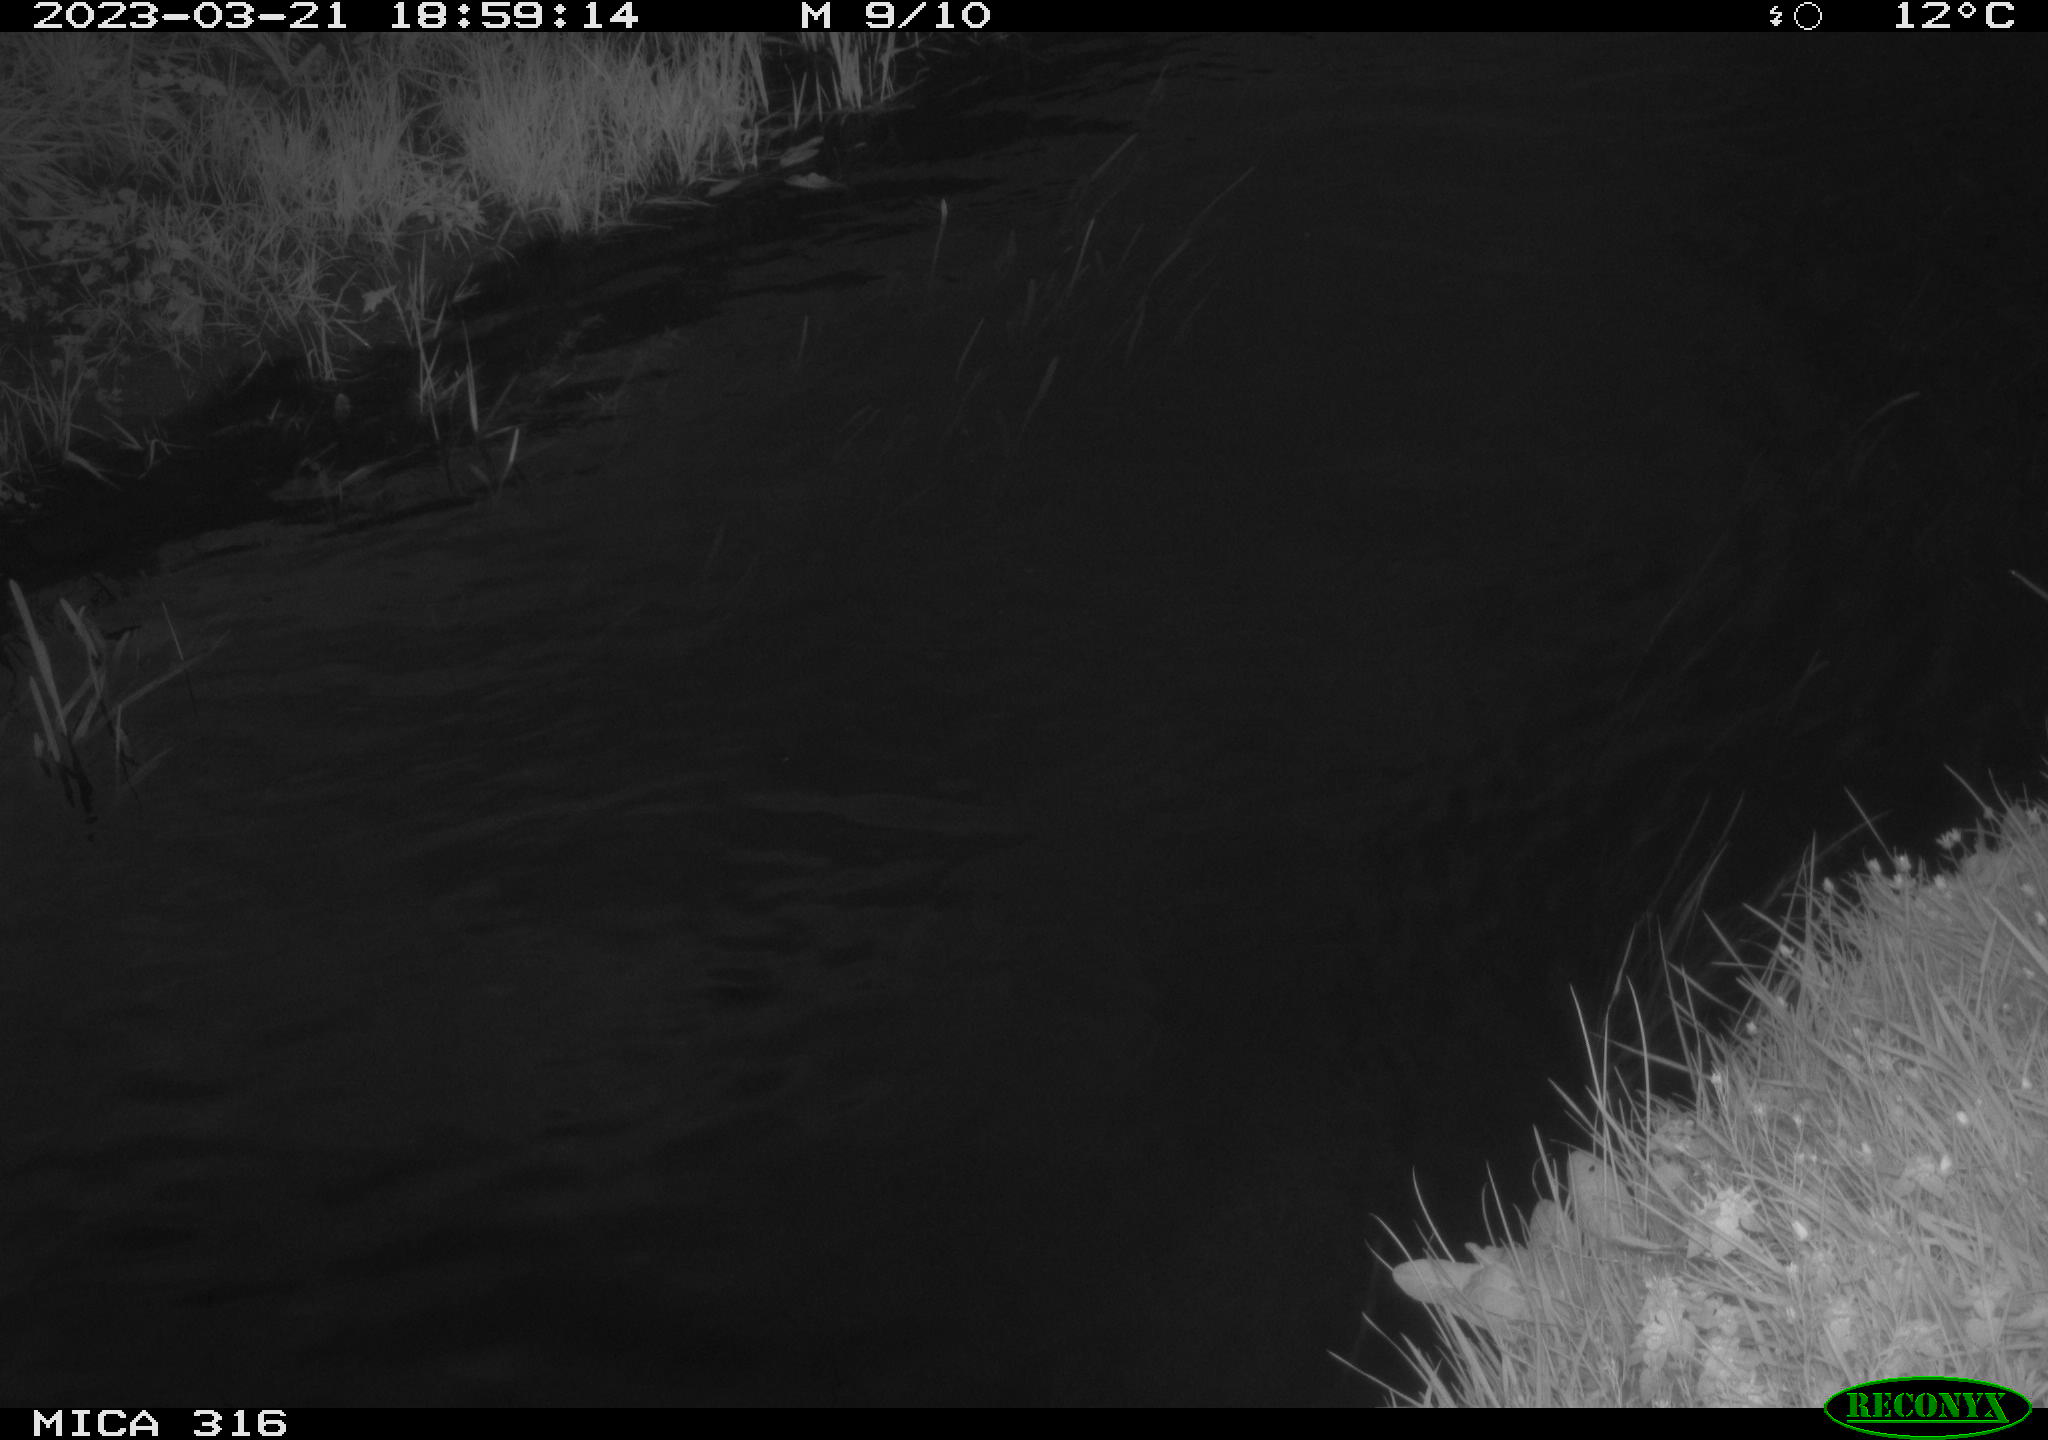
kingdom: Animalia
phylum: Chordata
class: Aves
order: Anseriformes
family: Anatidae
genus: Anas
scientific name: Anas
